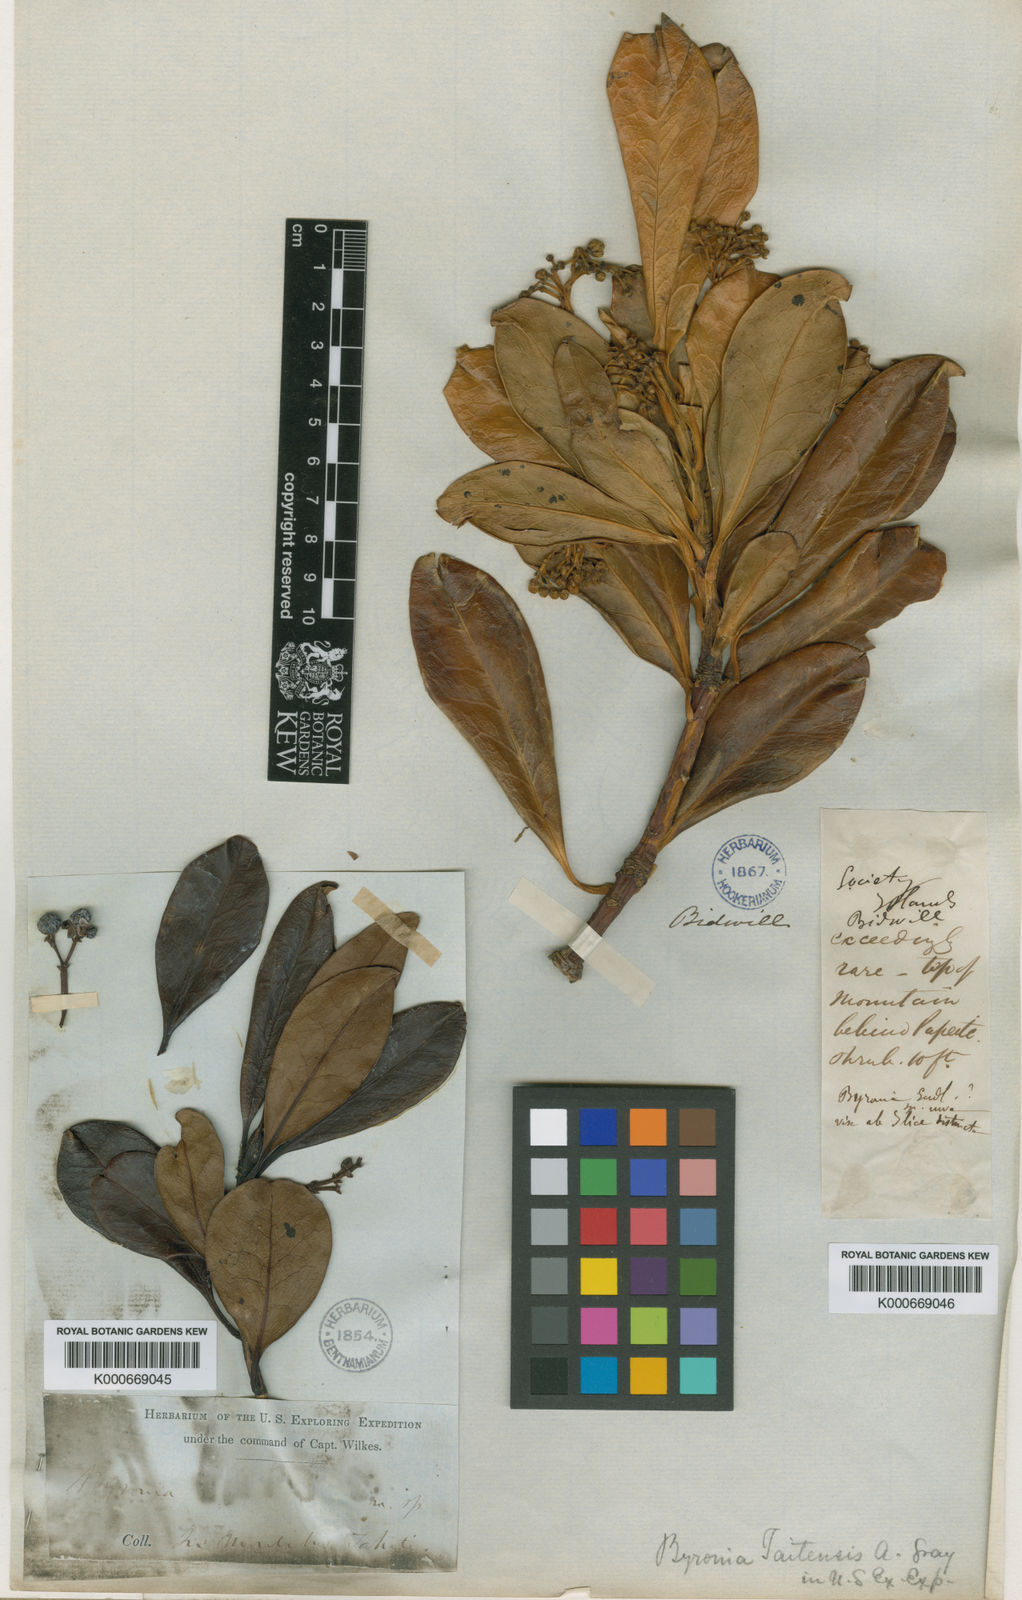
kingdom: Plantae
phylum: Tracheophyta
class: Magnoliopsida
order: Aquifoliales
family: Aquifoliaceae
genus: Ilex
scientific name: Ilex anomala
